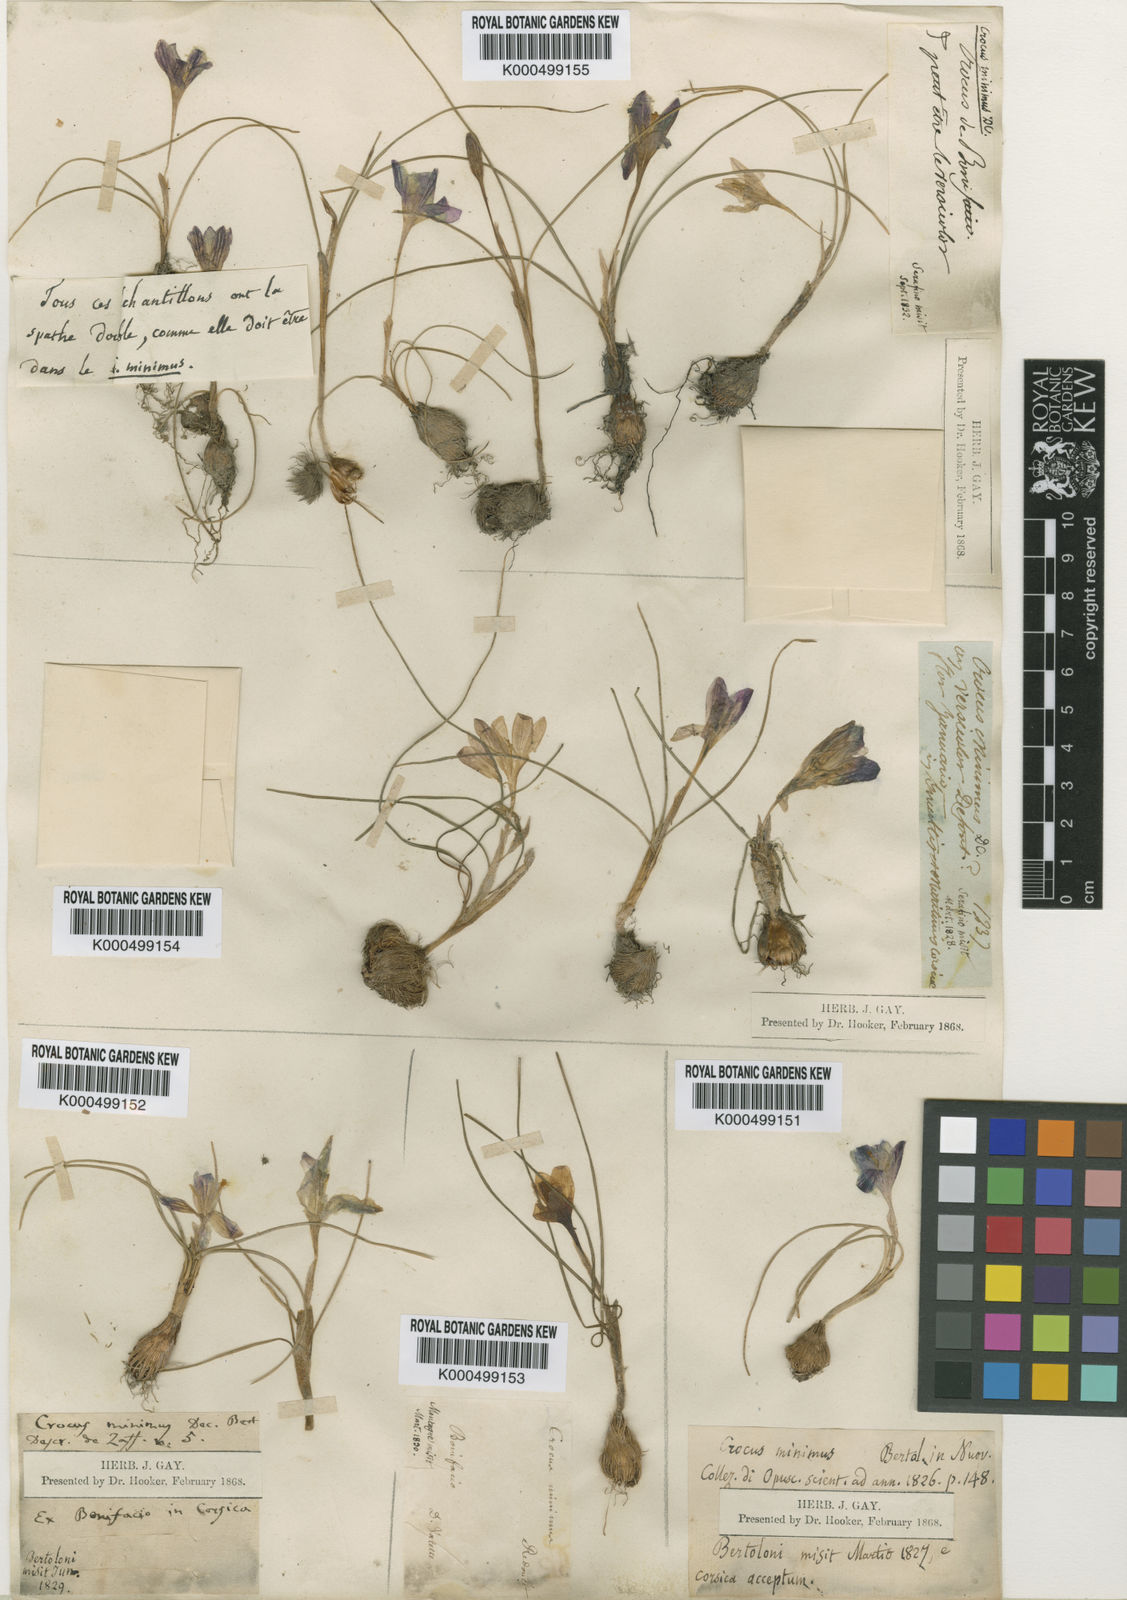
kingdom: Plantae
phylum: Tracheophyta
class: Liliopsida
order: Asparagales
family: Iridaceae
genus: Crocus
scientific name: Crocus biflorus
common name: Silvery crocus
